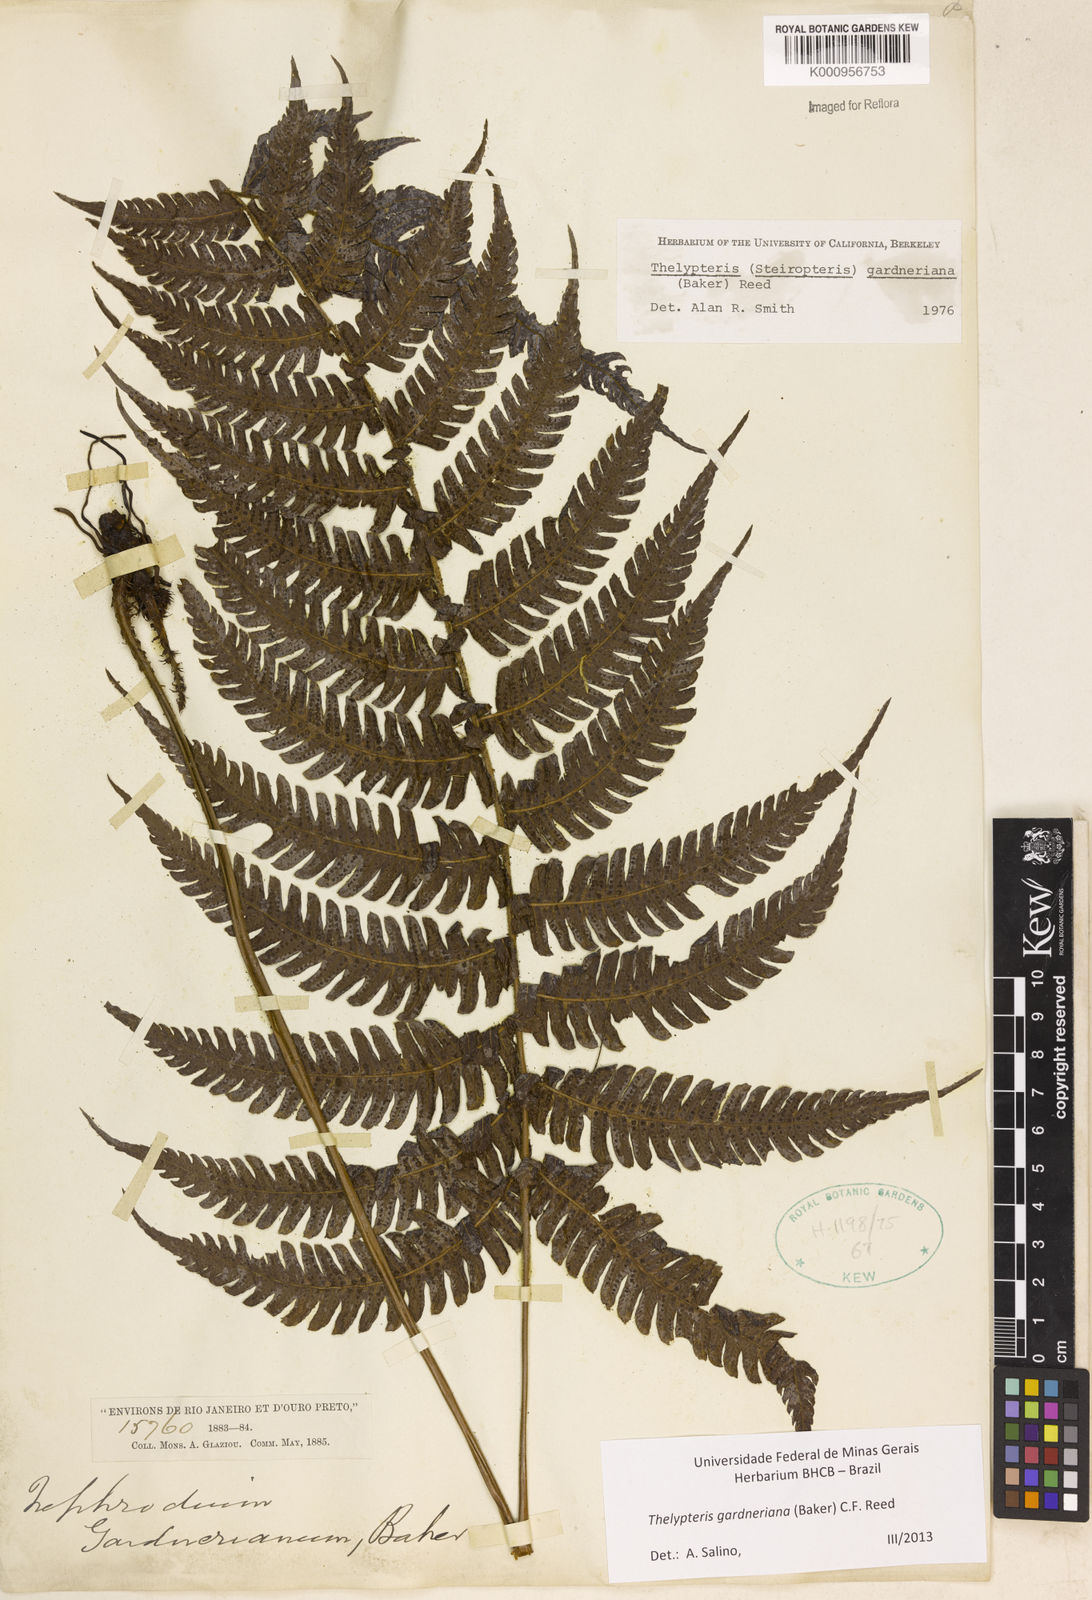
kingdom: Plantae
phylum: Tracheophyta
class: Polypodiopsida
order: Polypodiales
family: Thelypteridaceae
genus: Steiropteris
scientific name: Steiropteris gardneriana
